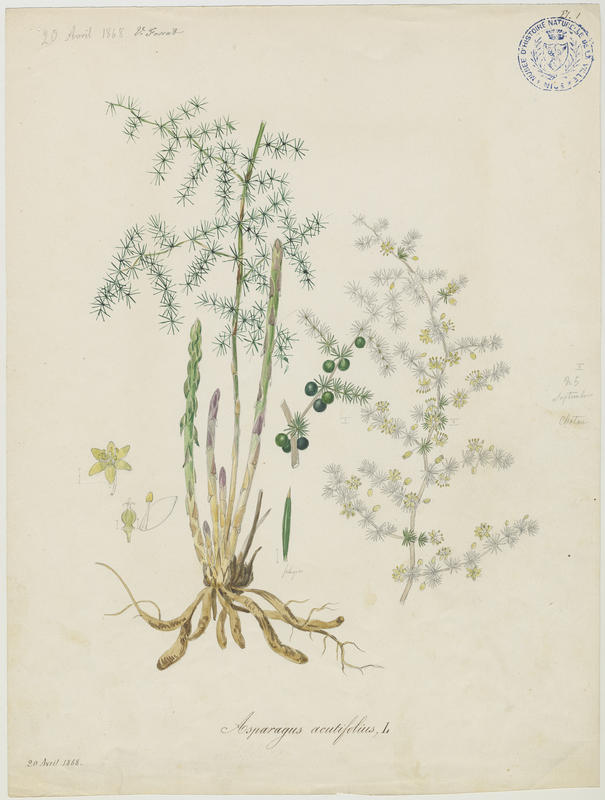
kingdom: Plantae
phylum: Tracheophyta
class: Liliopsida
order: Asparagales
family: Asparagaceae
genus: Asparagus
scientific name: Asparagus acutifolius
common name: Wild asparagus
